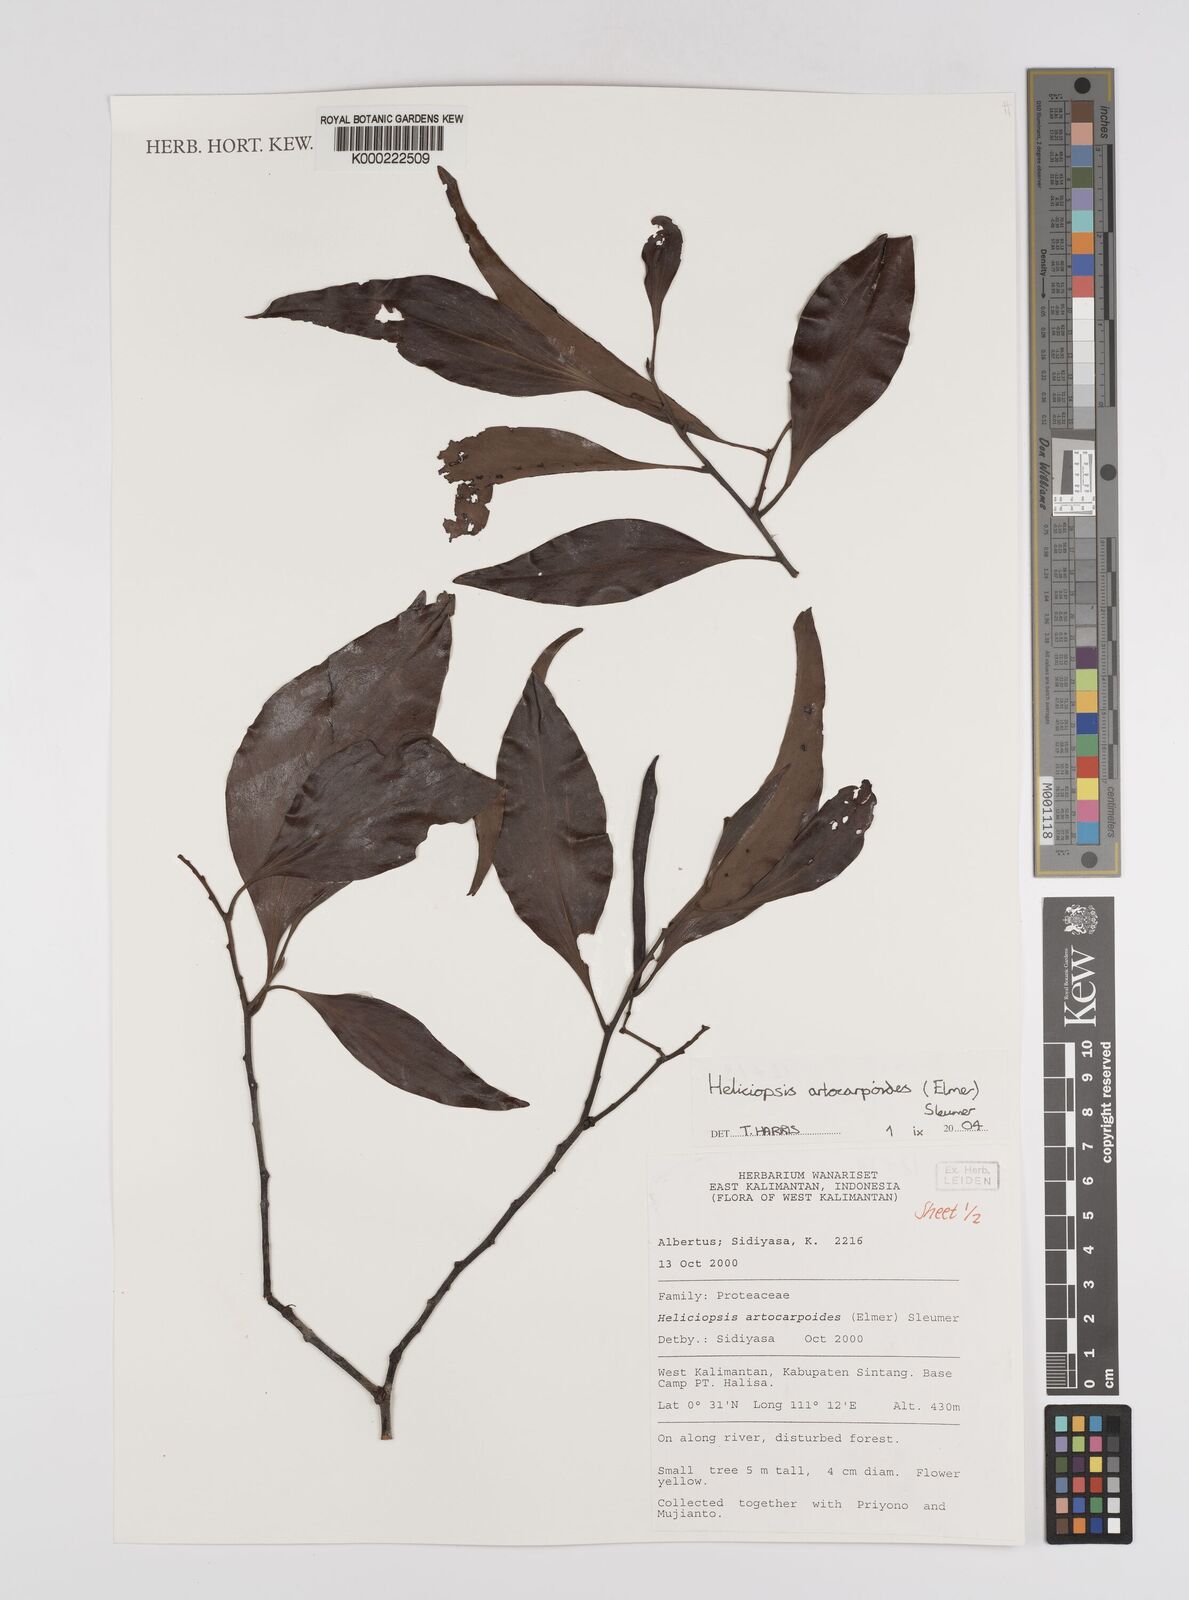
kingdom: Plantae
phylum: Tracheophyta
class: Magnoliopsida
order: Proteales
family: Proteaceae
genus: Heliciopsis
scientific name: Heliciopsis artocarpoides
